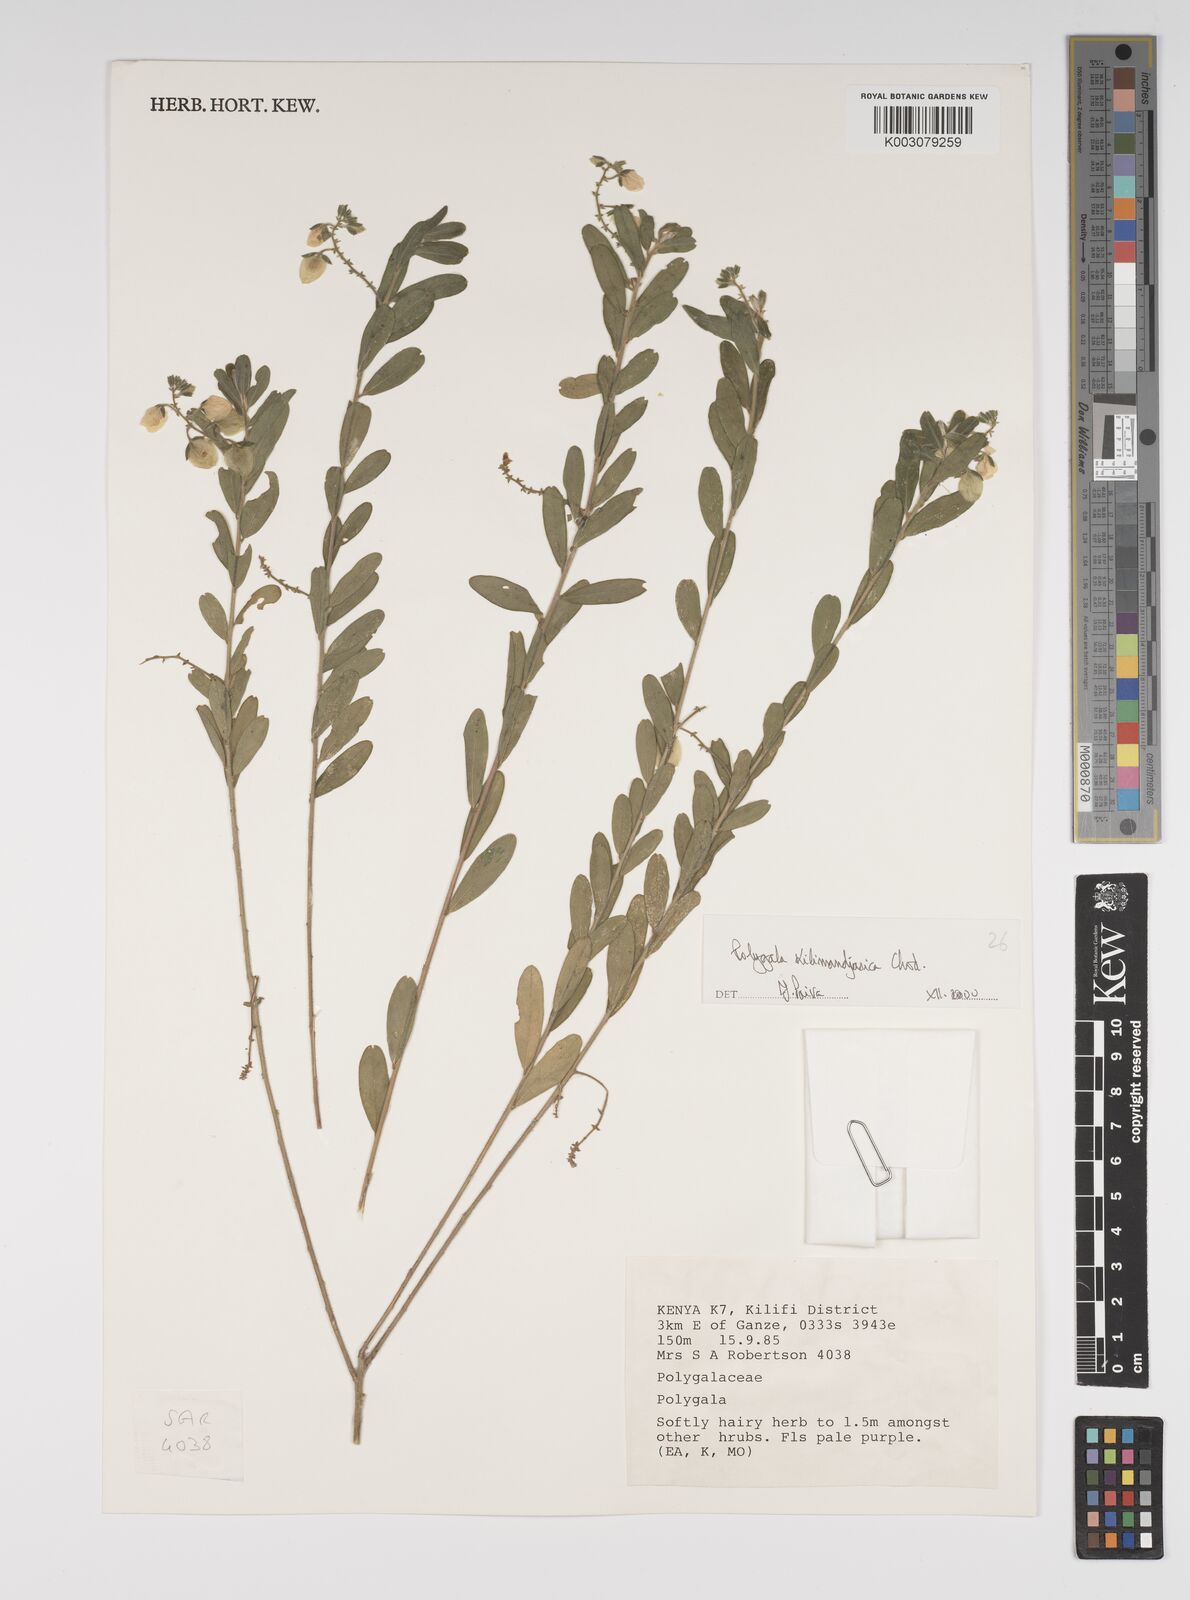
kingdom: Plantae
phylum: Tracheophyta
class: Magnoliopsida
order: Fabales
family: Polygalaceae
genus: Polygala
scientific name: Polygala kilimandjarica
